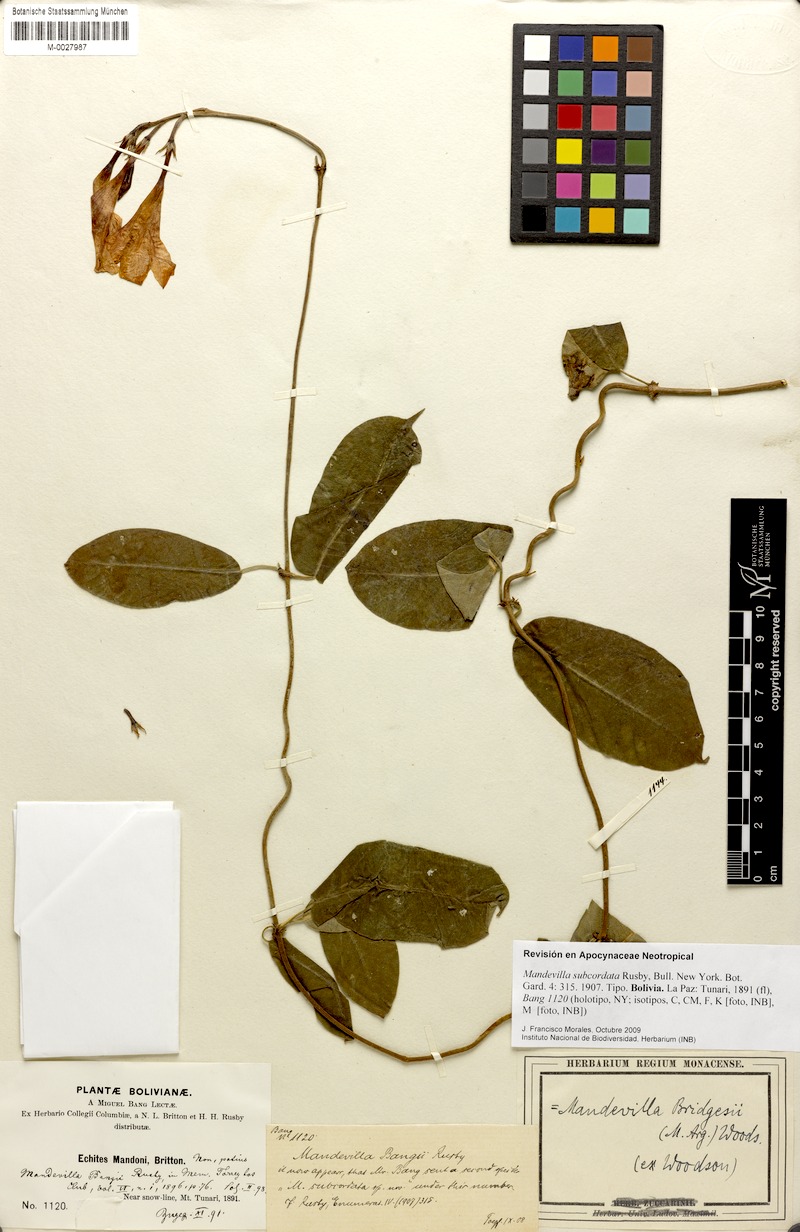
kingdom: Plantae
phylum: Tracheophyta
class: Magnoliopsida
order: Gentianales
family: Apocynaceae
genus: Mandevilla
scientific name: Mandevilla subcordata
